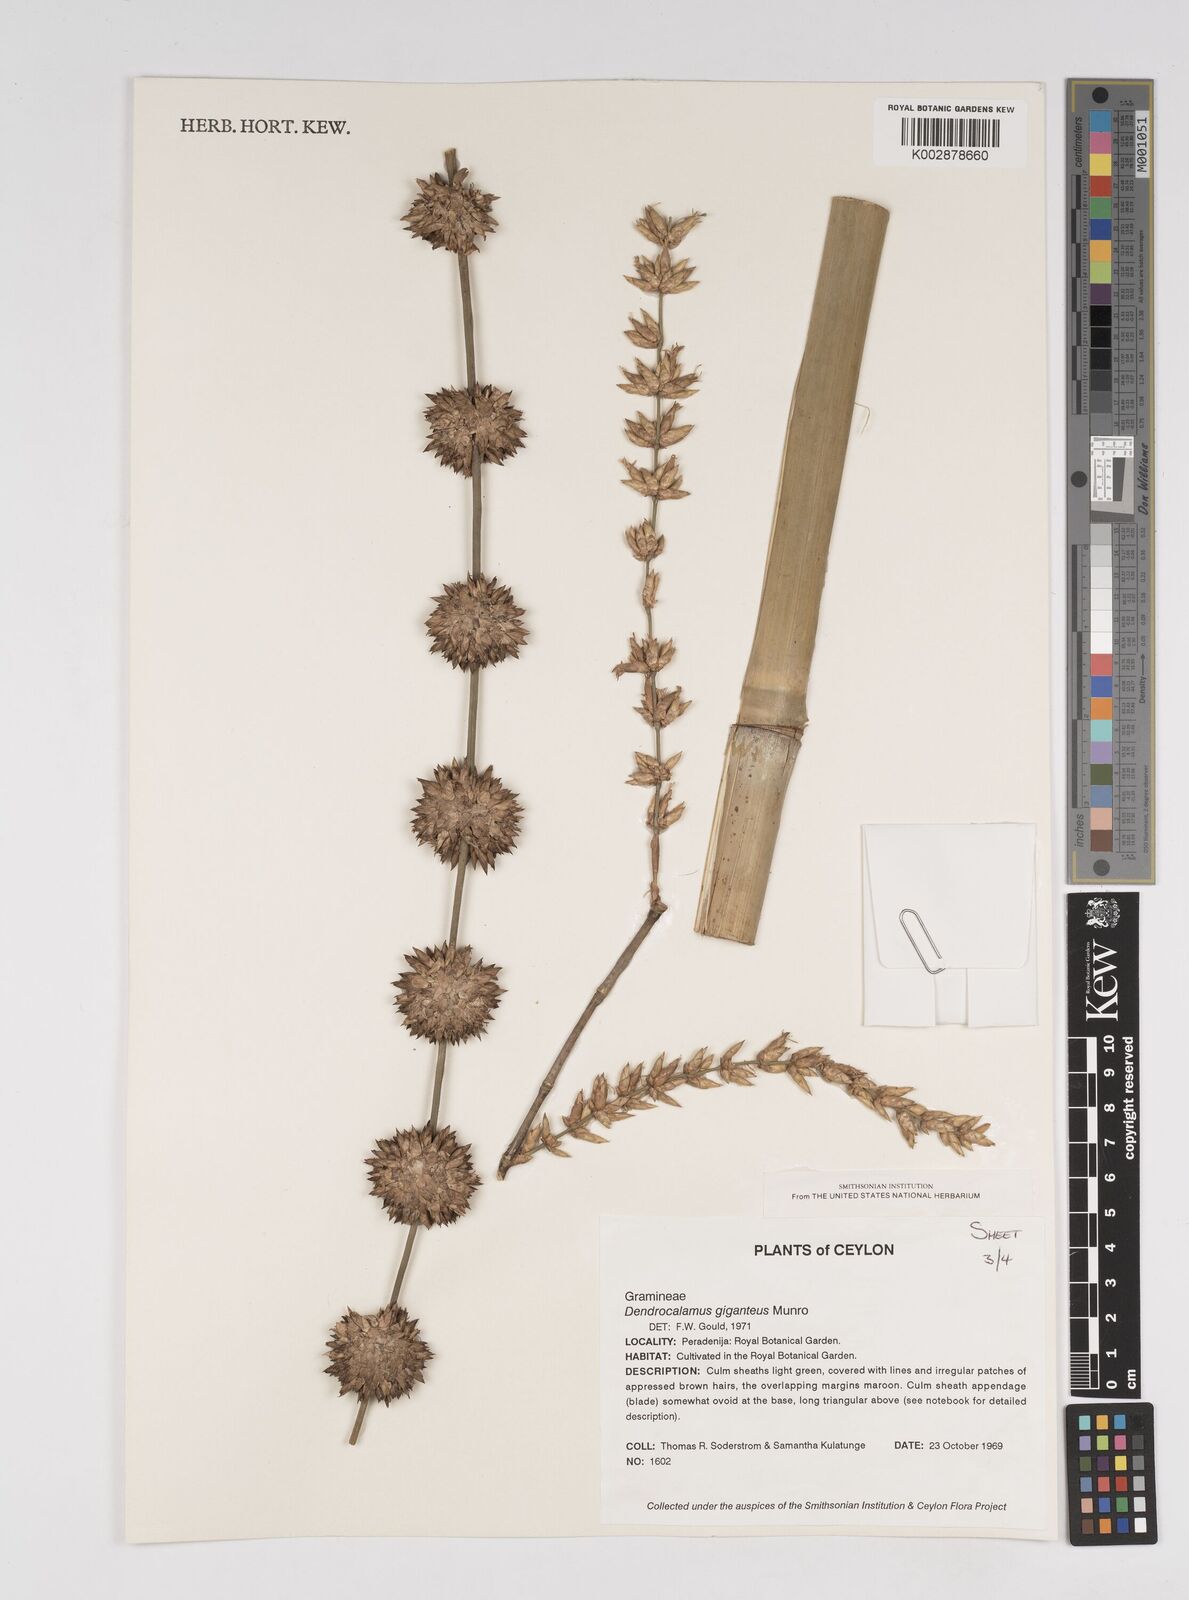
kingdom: Plantae
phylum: Tracheophyta
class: Liliopsida
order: Poales
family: Poaceae
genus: Dendrocalamus
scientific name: Dendrocalamus giganteus
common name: Giant bamboo
